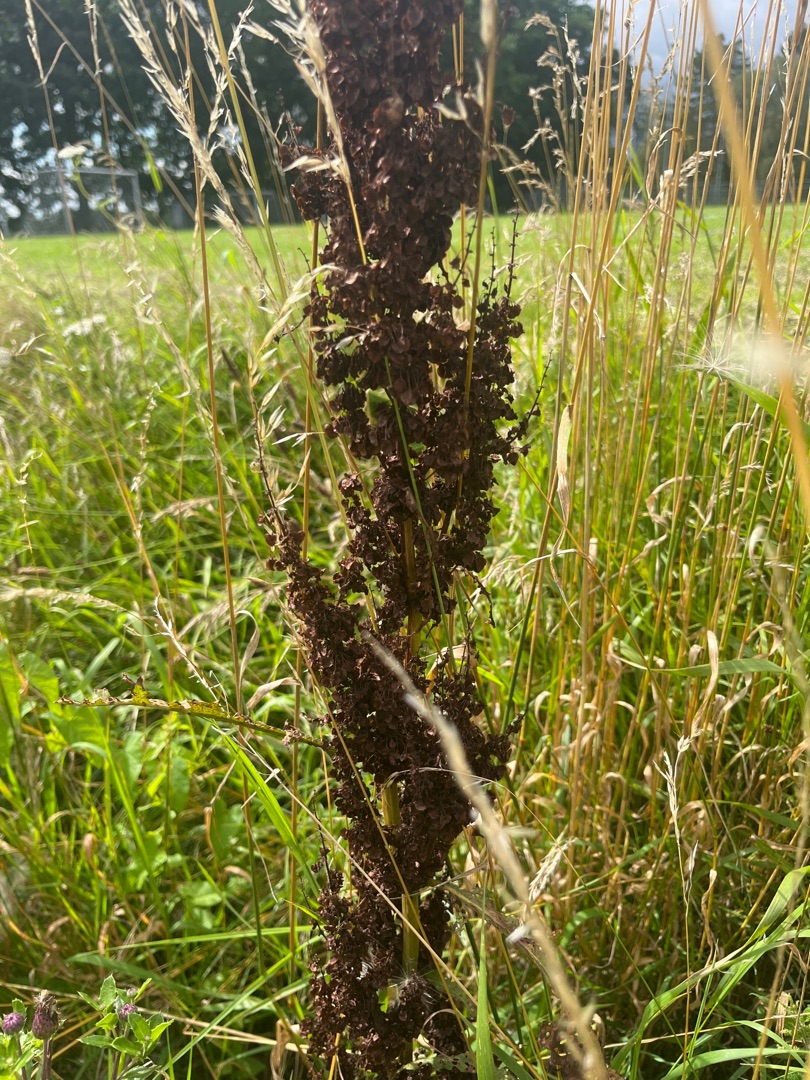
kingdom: Plantae
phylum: Tracheophyta
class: Magnoliopsida
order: Caryophyllales
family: Polygonaceae
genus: Rumex
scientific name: Rumex longifolius
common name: By-skræppe
